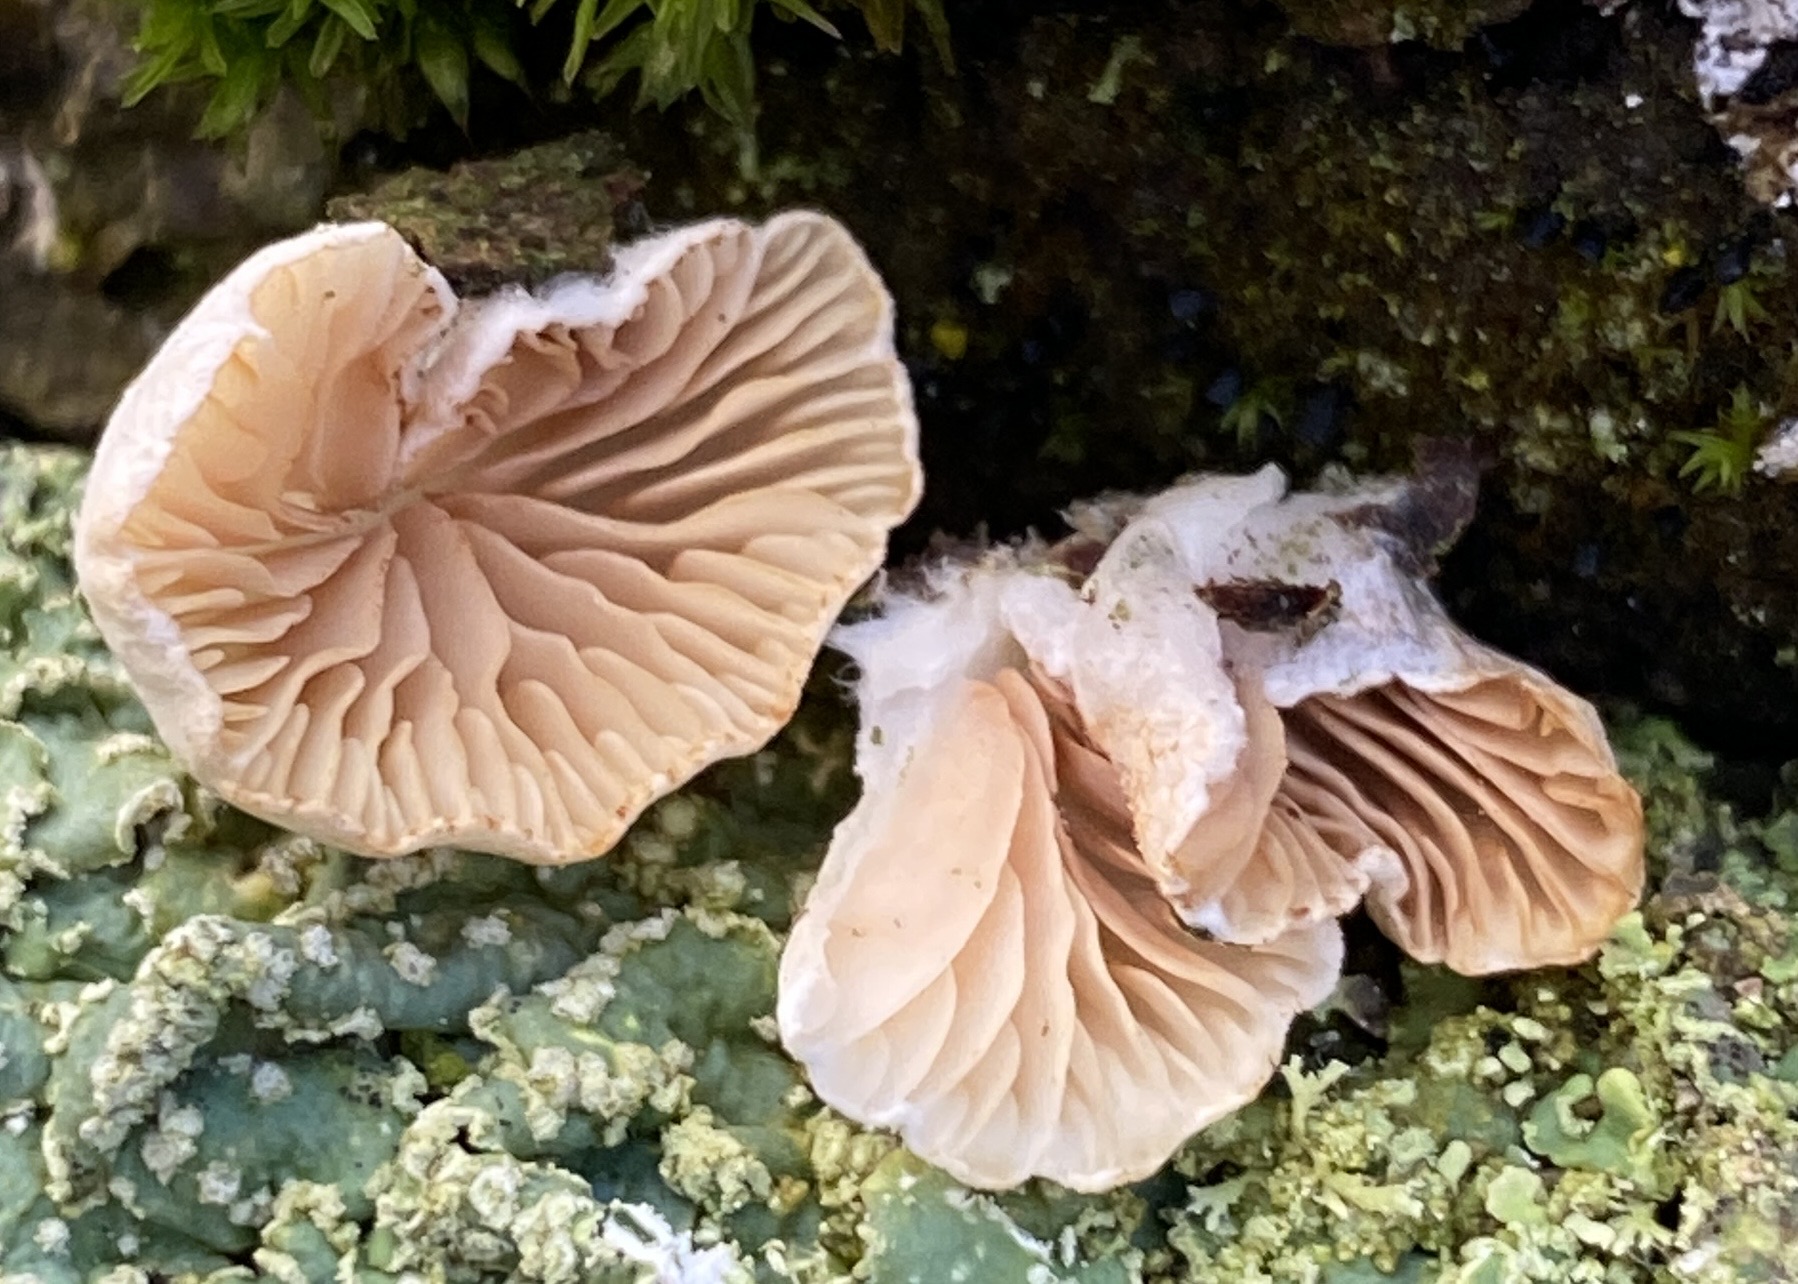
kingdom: Fungi
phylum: Basidiomycota
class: Agaricomycetes
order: Agaricales
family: Crepidotaceae
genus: Crepidotus
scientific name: Crepidotus
